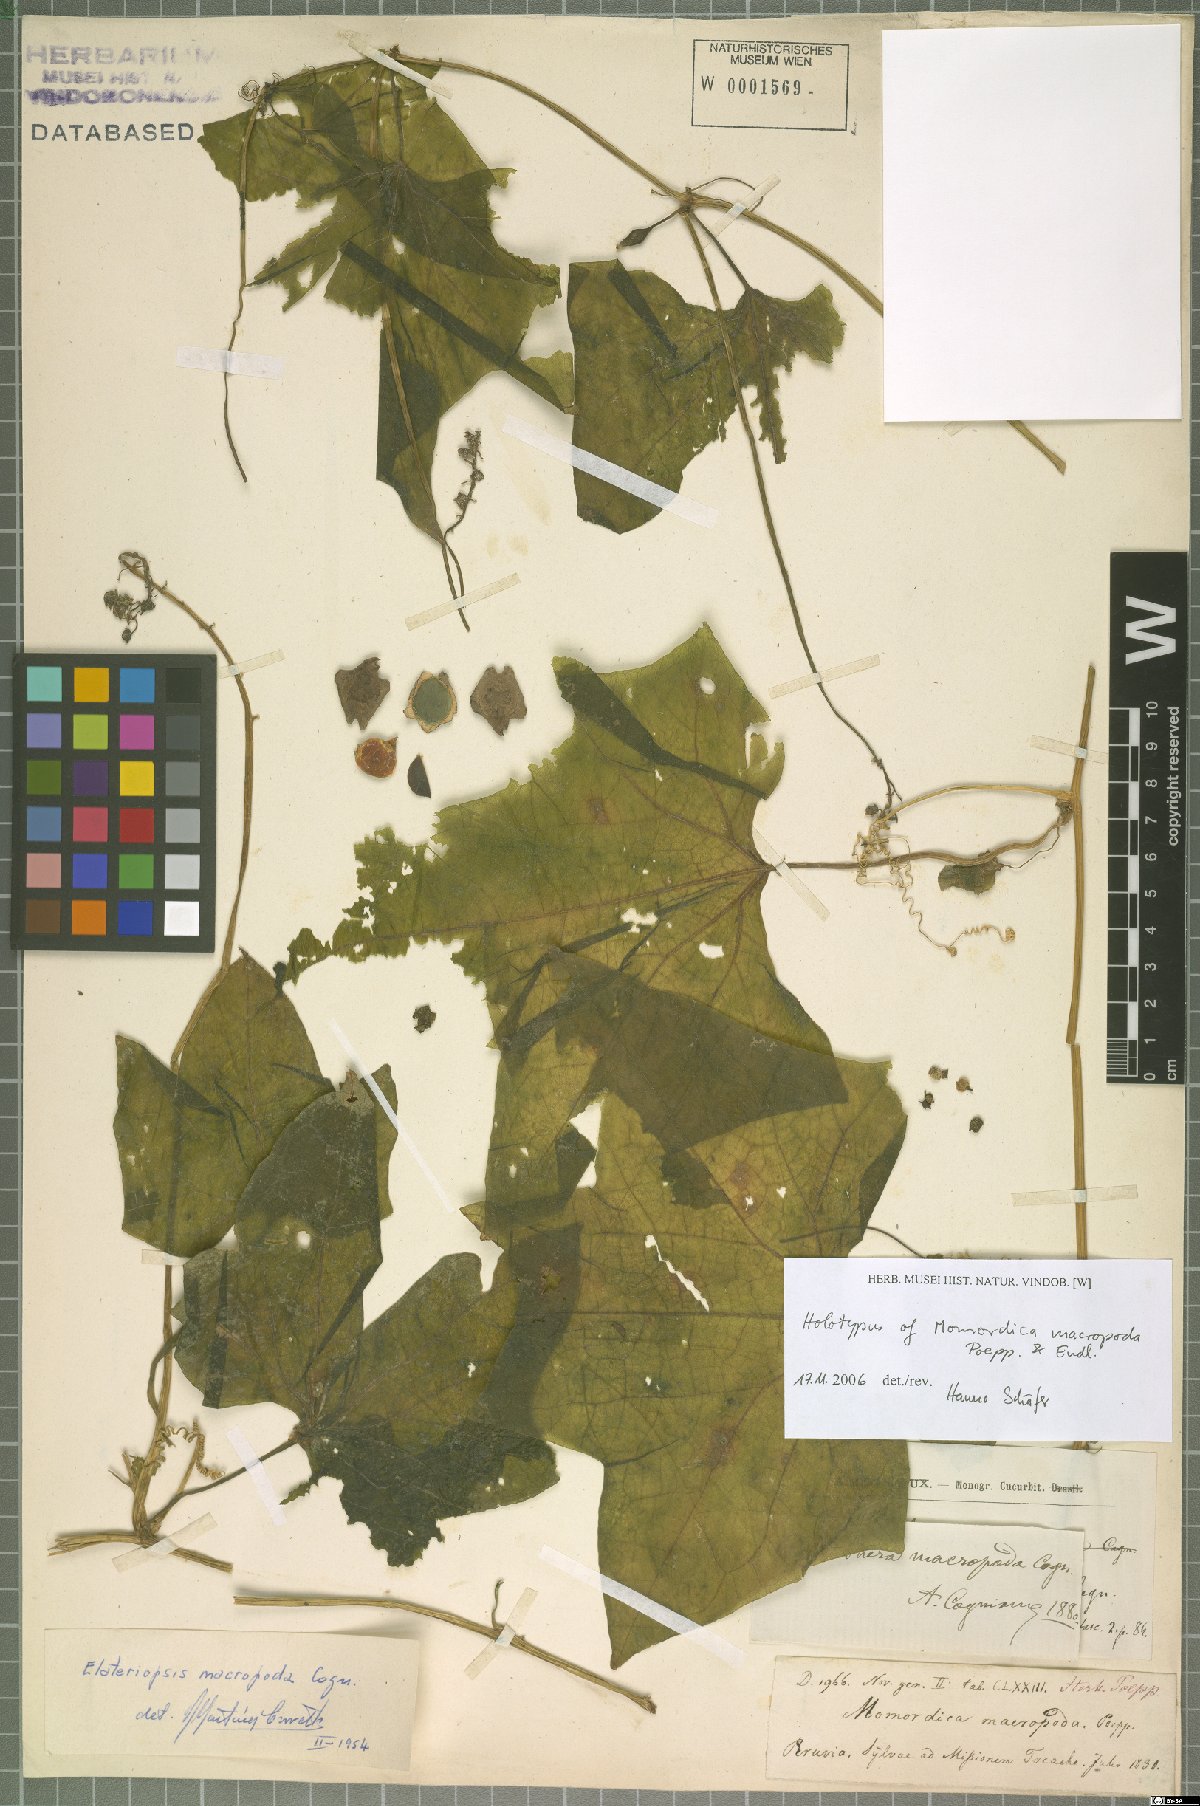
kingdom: Plantae
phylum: Tracheophyta
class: Magnoliopsida
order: Cucurbitales
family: Cucurbitaceae
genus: Cyclanthera
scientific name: Cyclanthera macropoda
